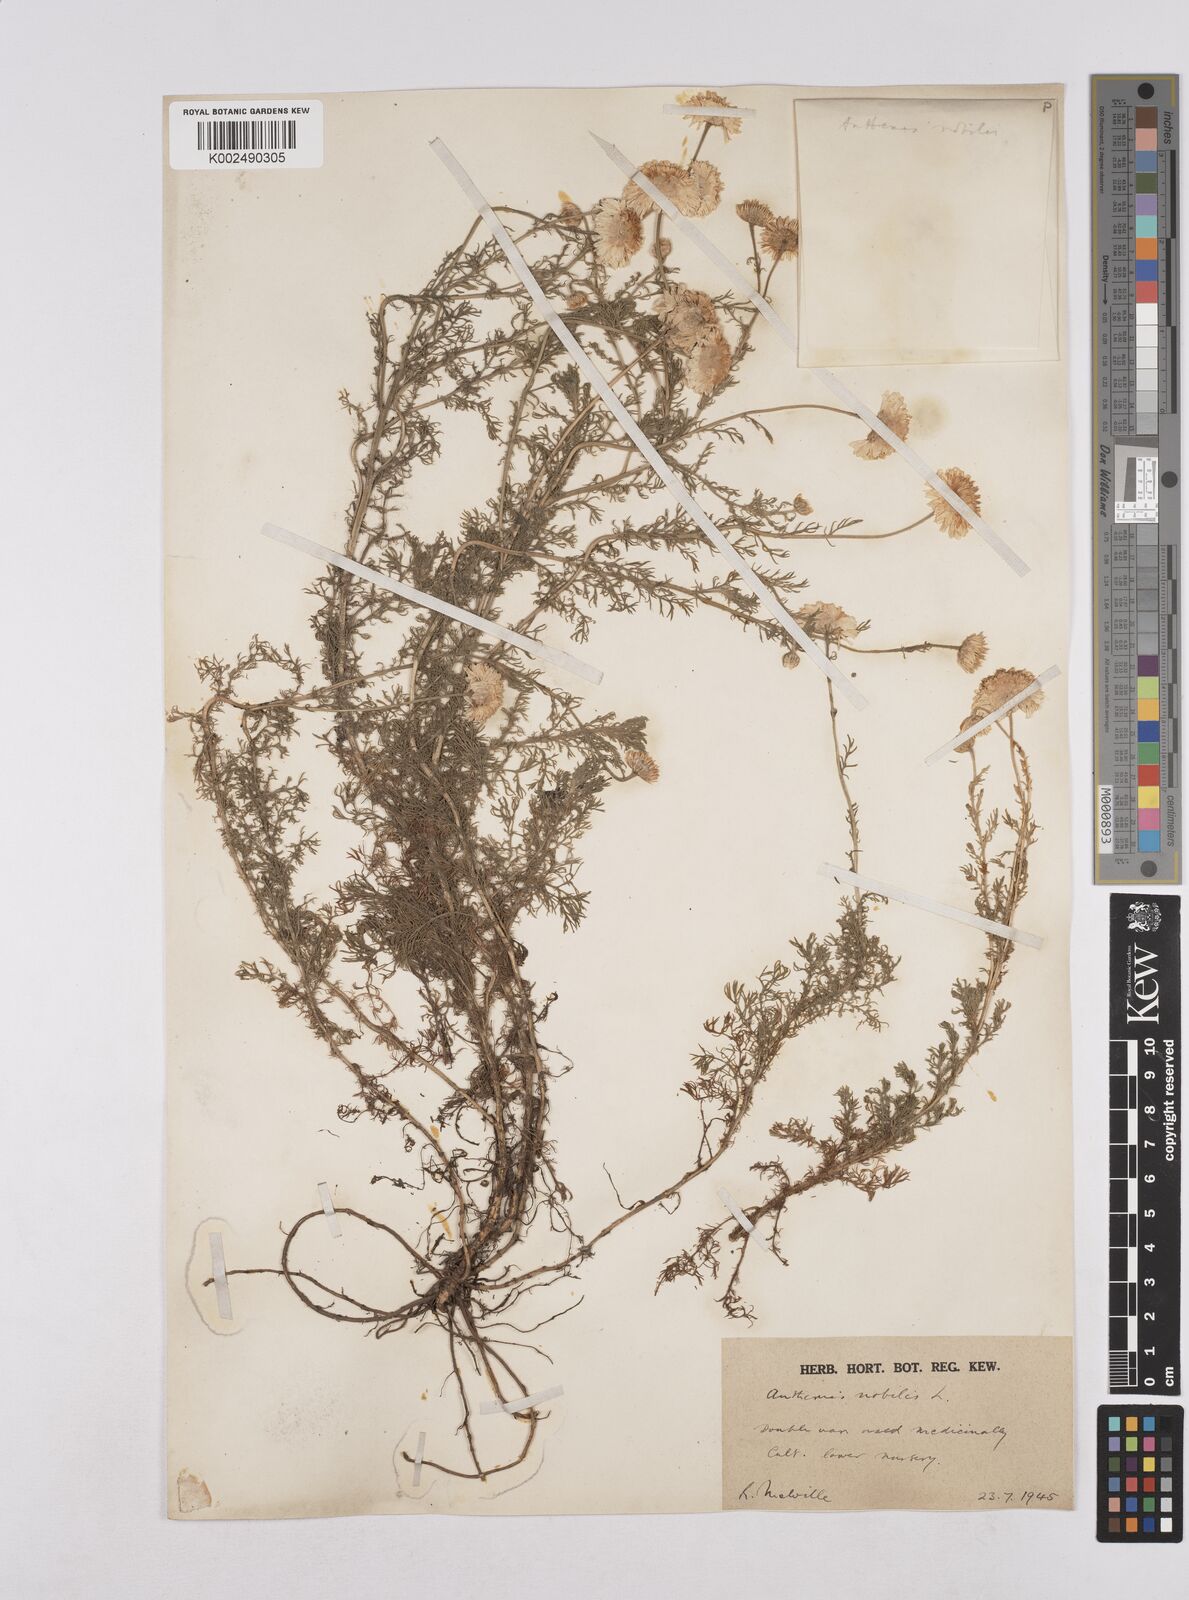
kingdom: Plantae
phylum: Tracheophyta
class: Magnoliopsida
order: Asterales
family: Asteraceae
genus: Matricaria
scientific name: Matricaria chamomilla
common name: Scented mayweed
